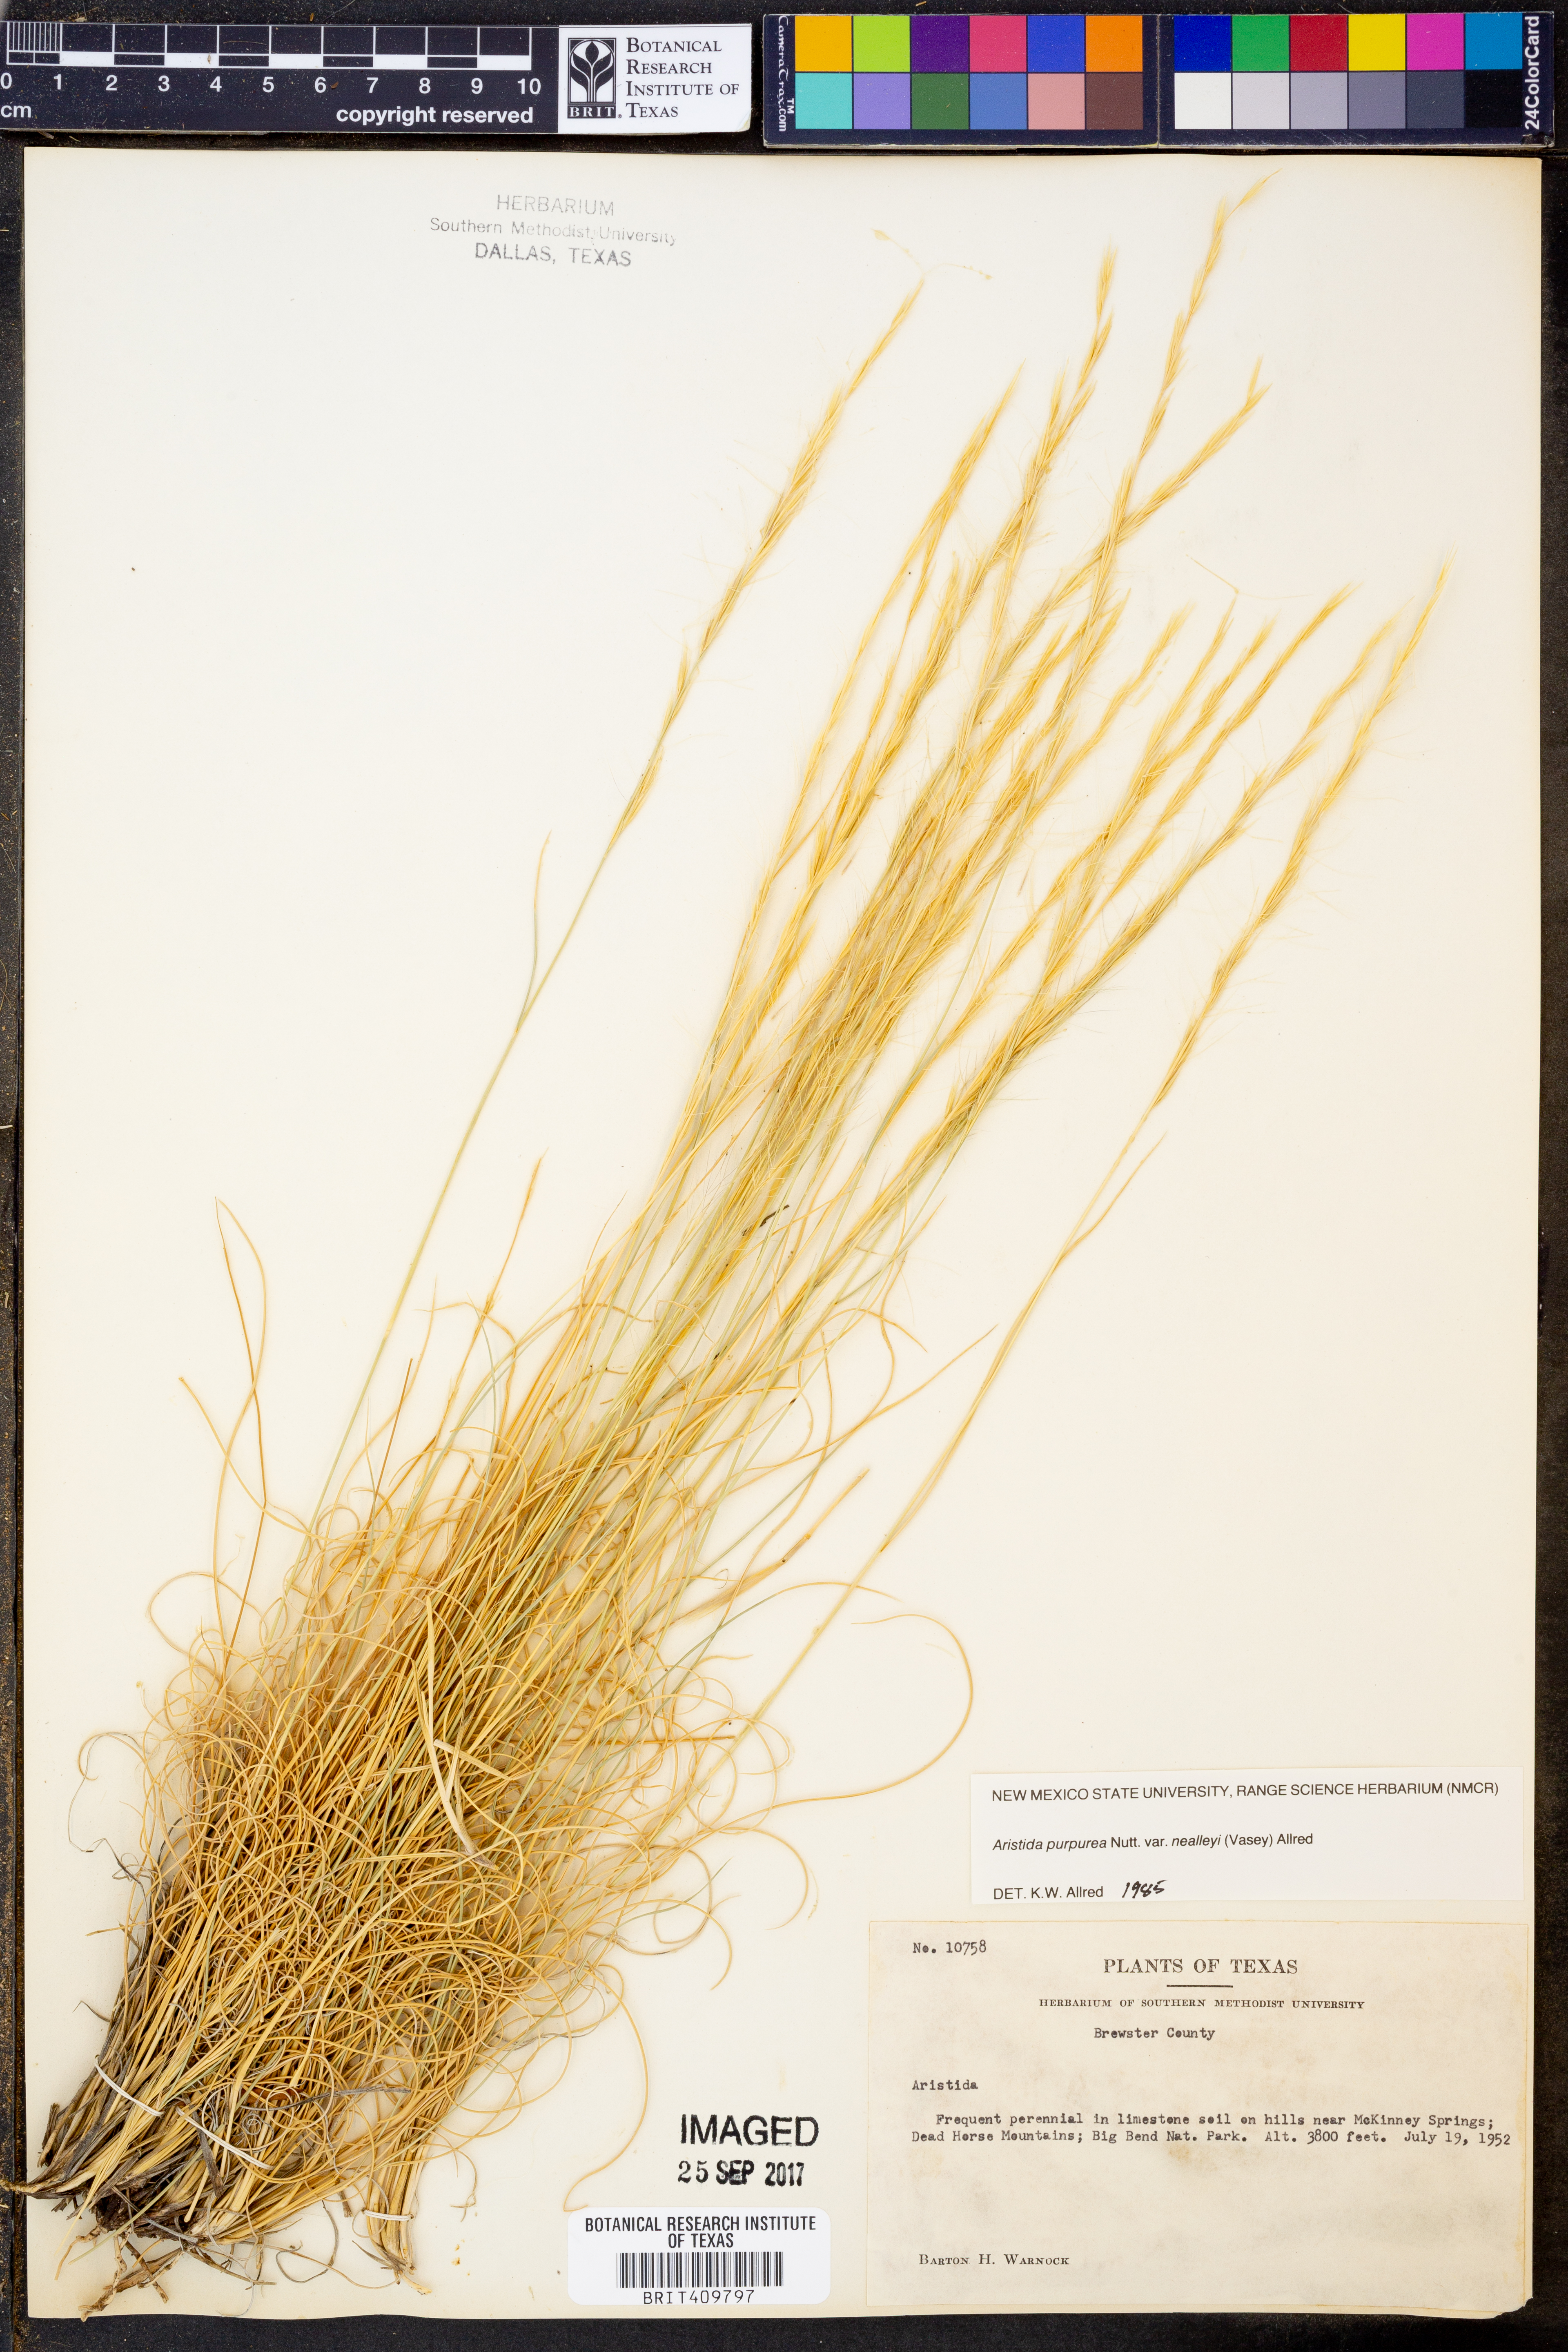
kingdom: Plantae
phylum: Tracheophyta
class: Liliopsida
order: Poales
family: Poaceae
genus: Aristida
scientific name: Aristida glauca
